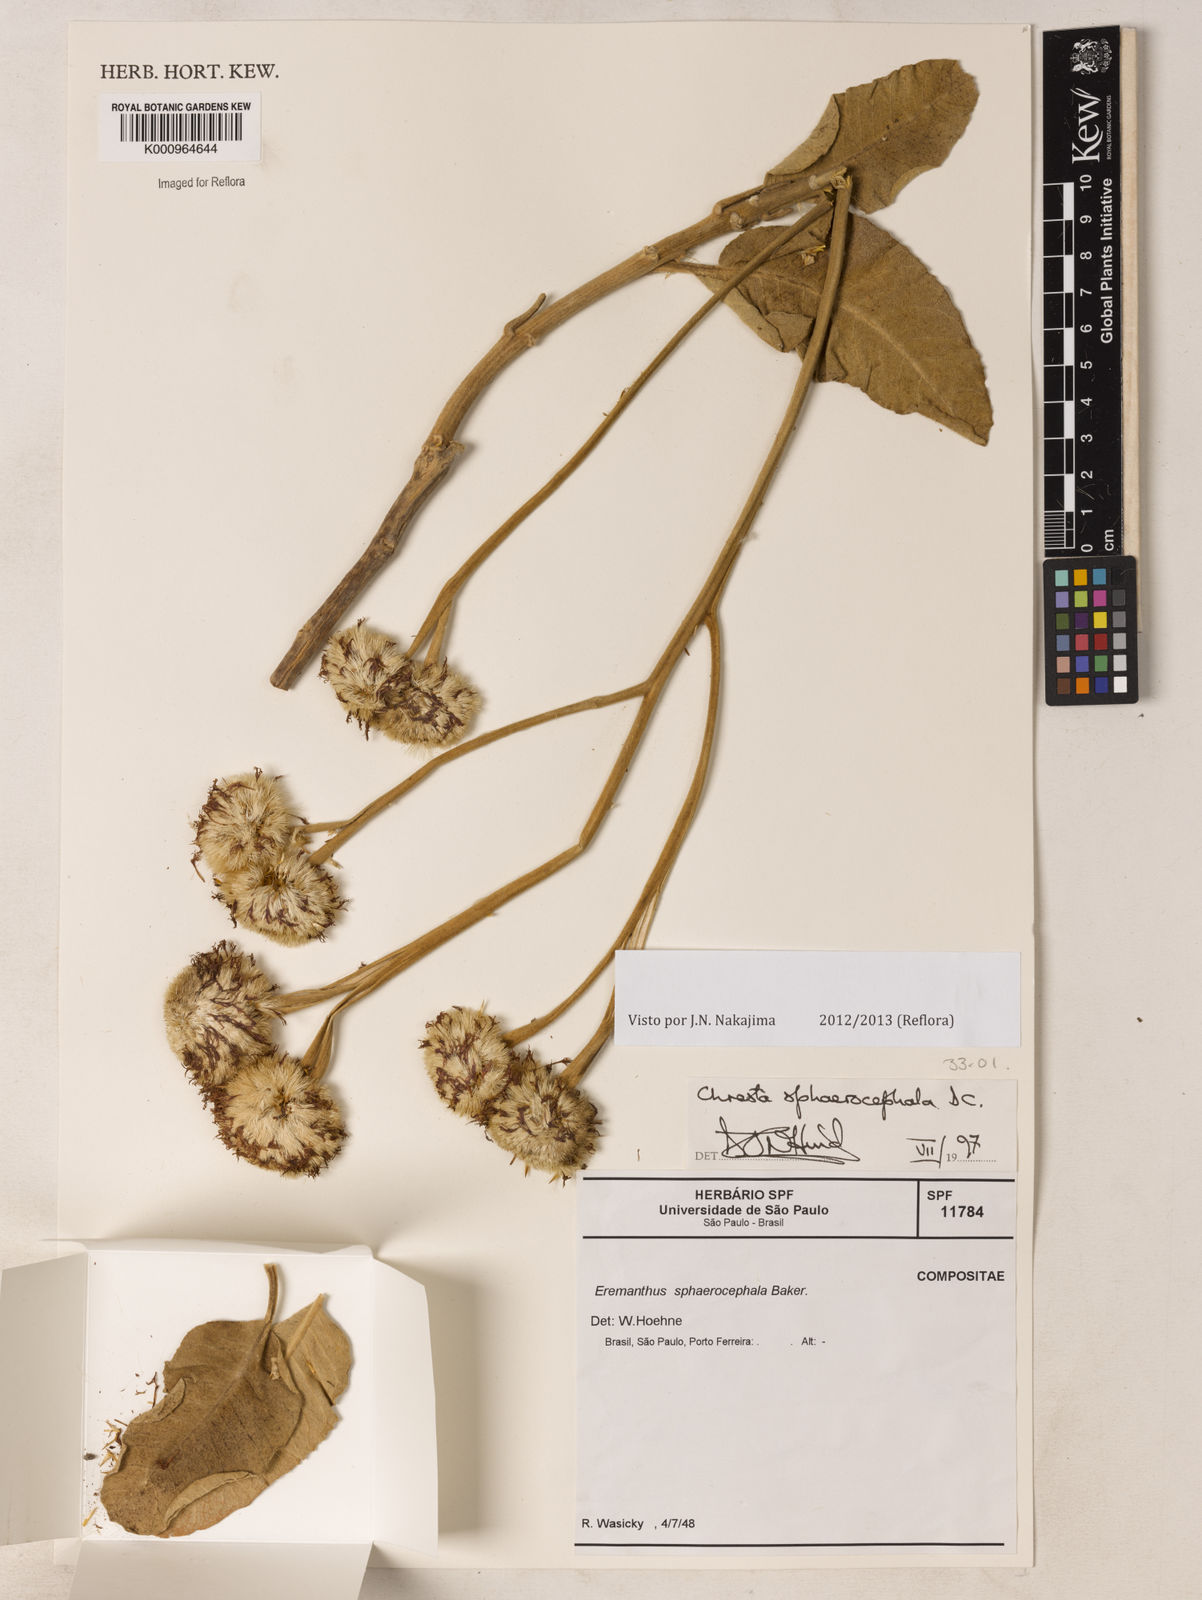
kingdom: Plantae
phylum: Tracheophyta
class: Magnoliopsida
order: Asterales
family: Asteraceae
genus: Chresta
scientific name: Chresta sphaerocephala
